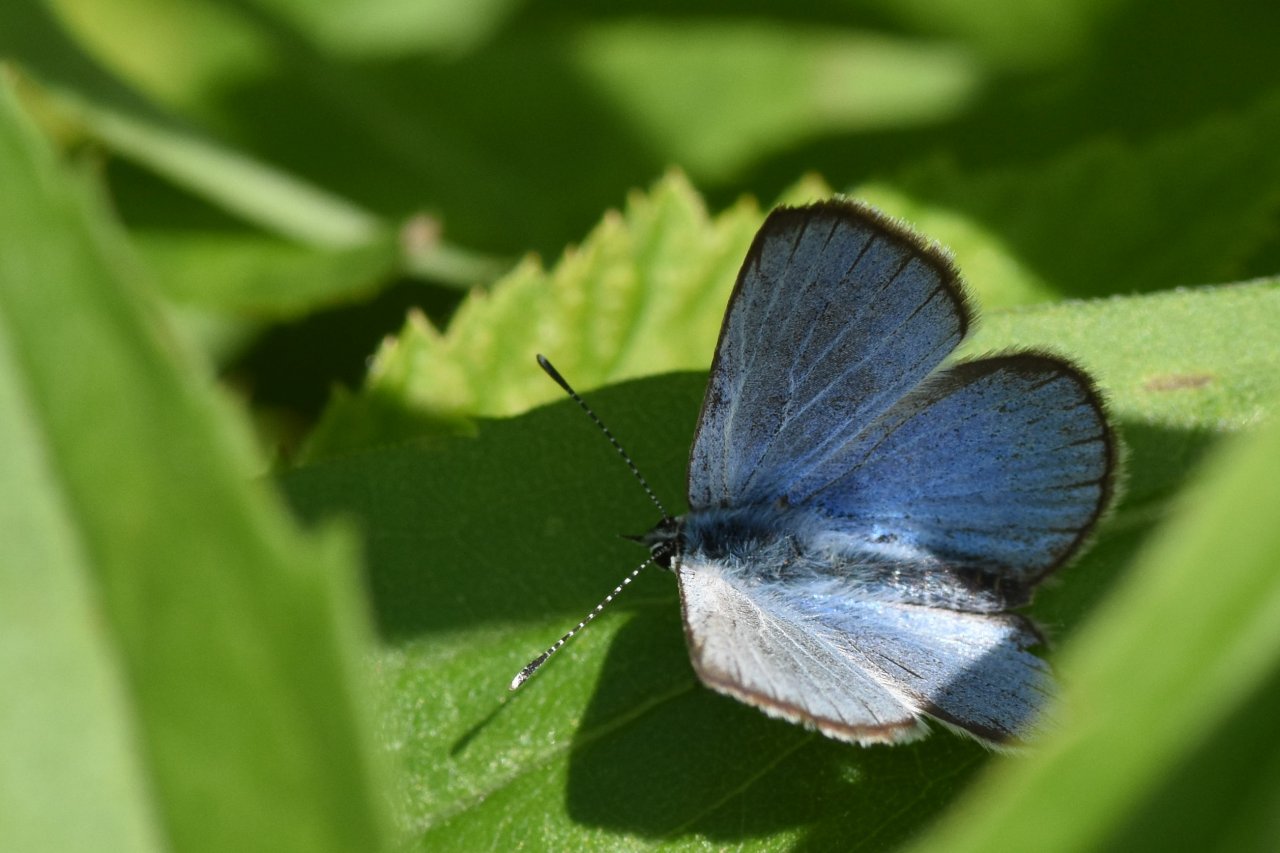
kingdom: Animalia
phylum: Arthropoda
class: Insecta
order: Lepidoptera
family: Lycaenidae
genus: Glaucopsyche
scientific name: Glaucopsyche lygdamus
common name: Silvery Blue
